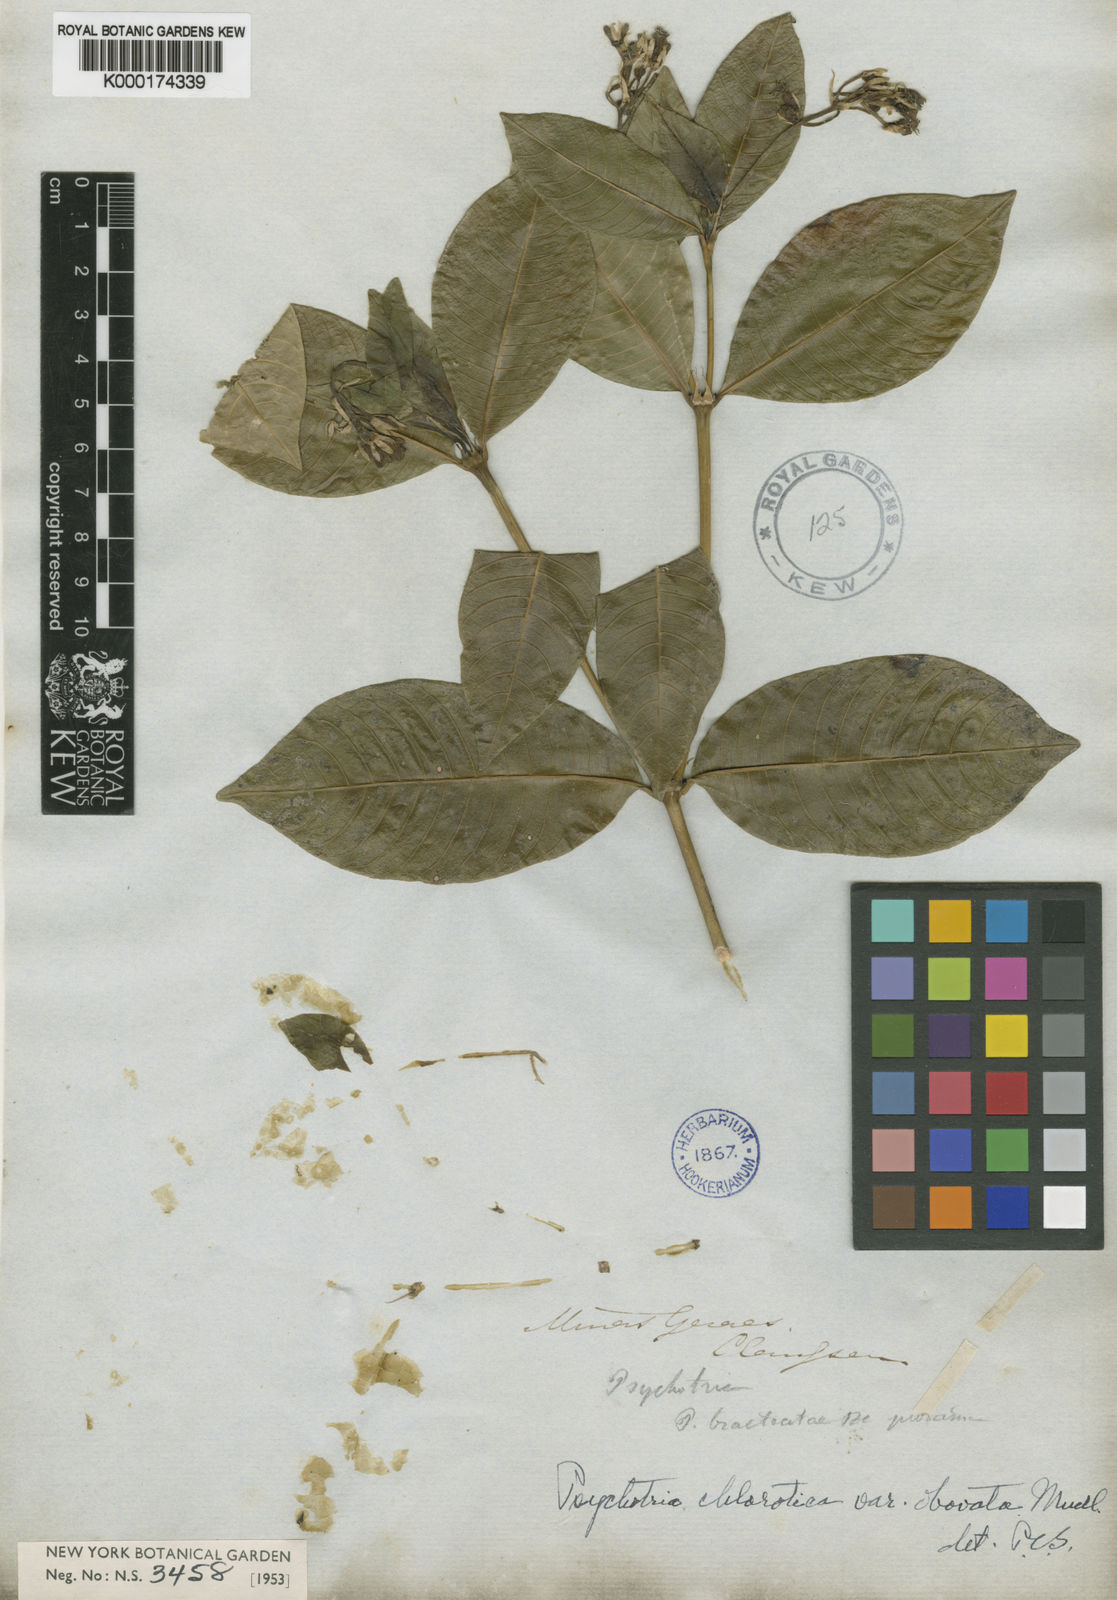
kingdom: Plantae
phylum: Tracheophyta
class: Magnoliopsida
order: Gentianales
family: Rubiaceae
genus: Palicourea
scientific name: Palicourea violacea
